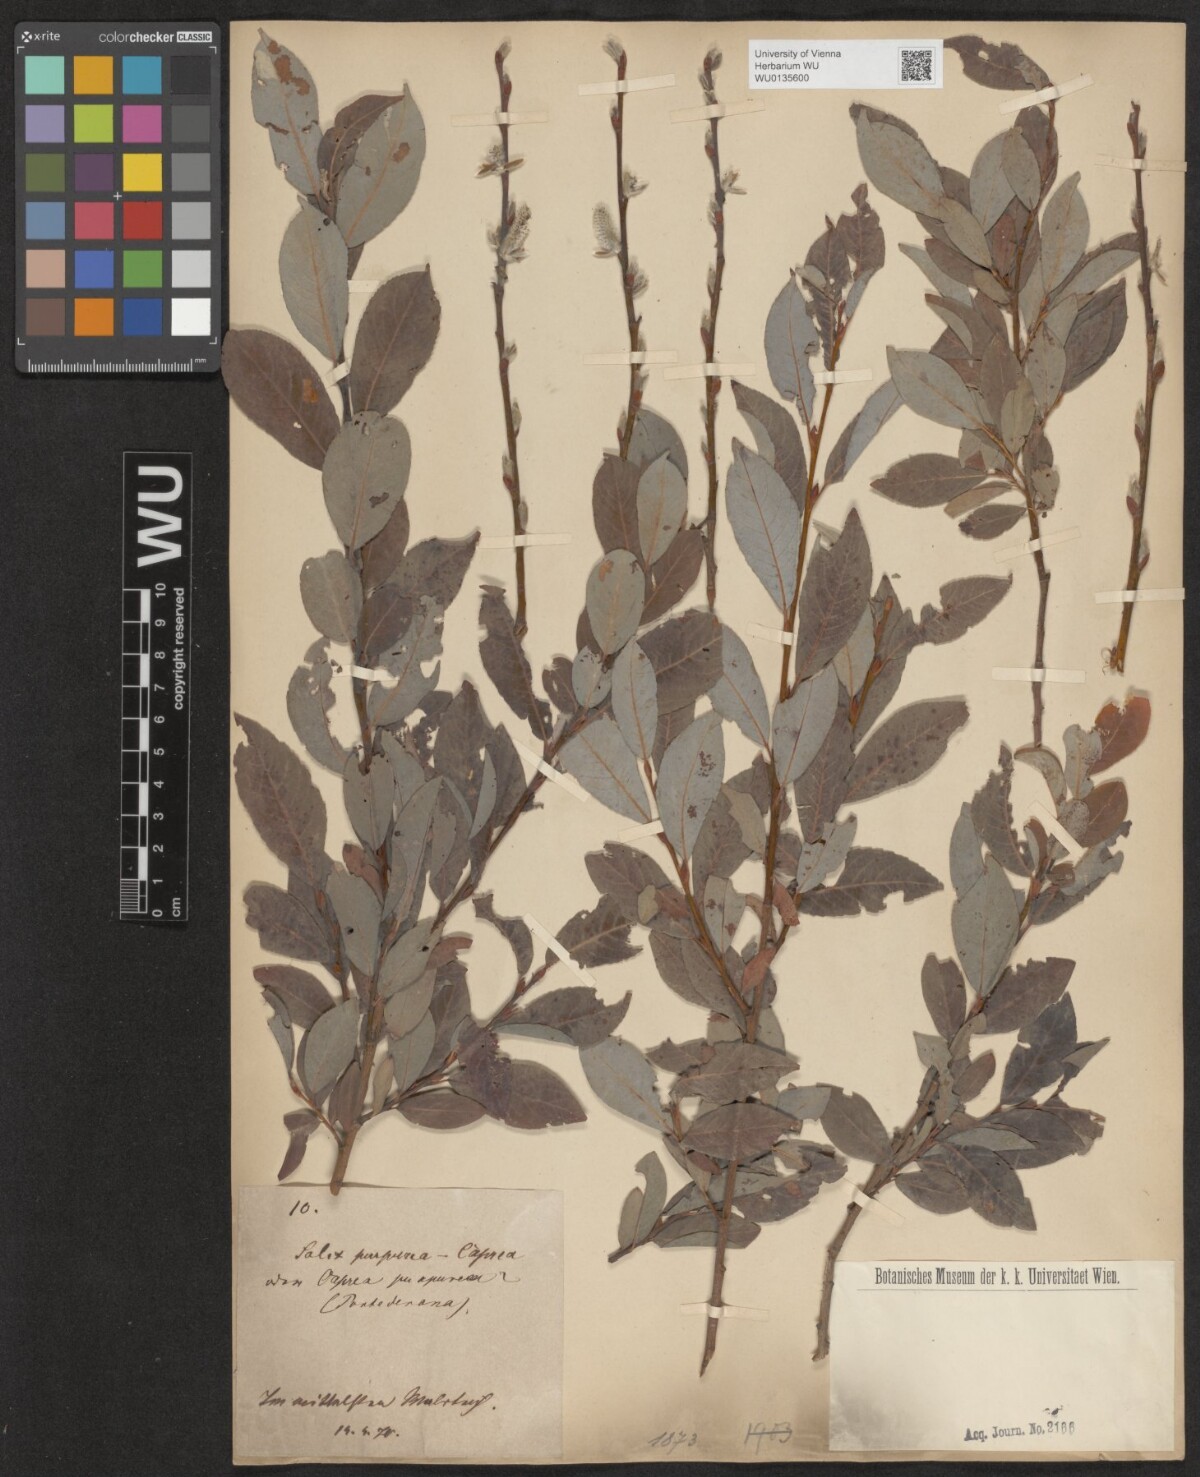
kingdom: Plantae
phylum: Tracheophyta
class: Magnoliopsida
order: Malpighiales
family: Salicaceae
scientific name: Salicaceae
